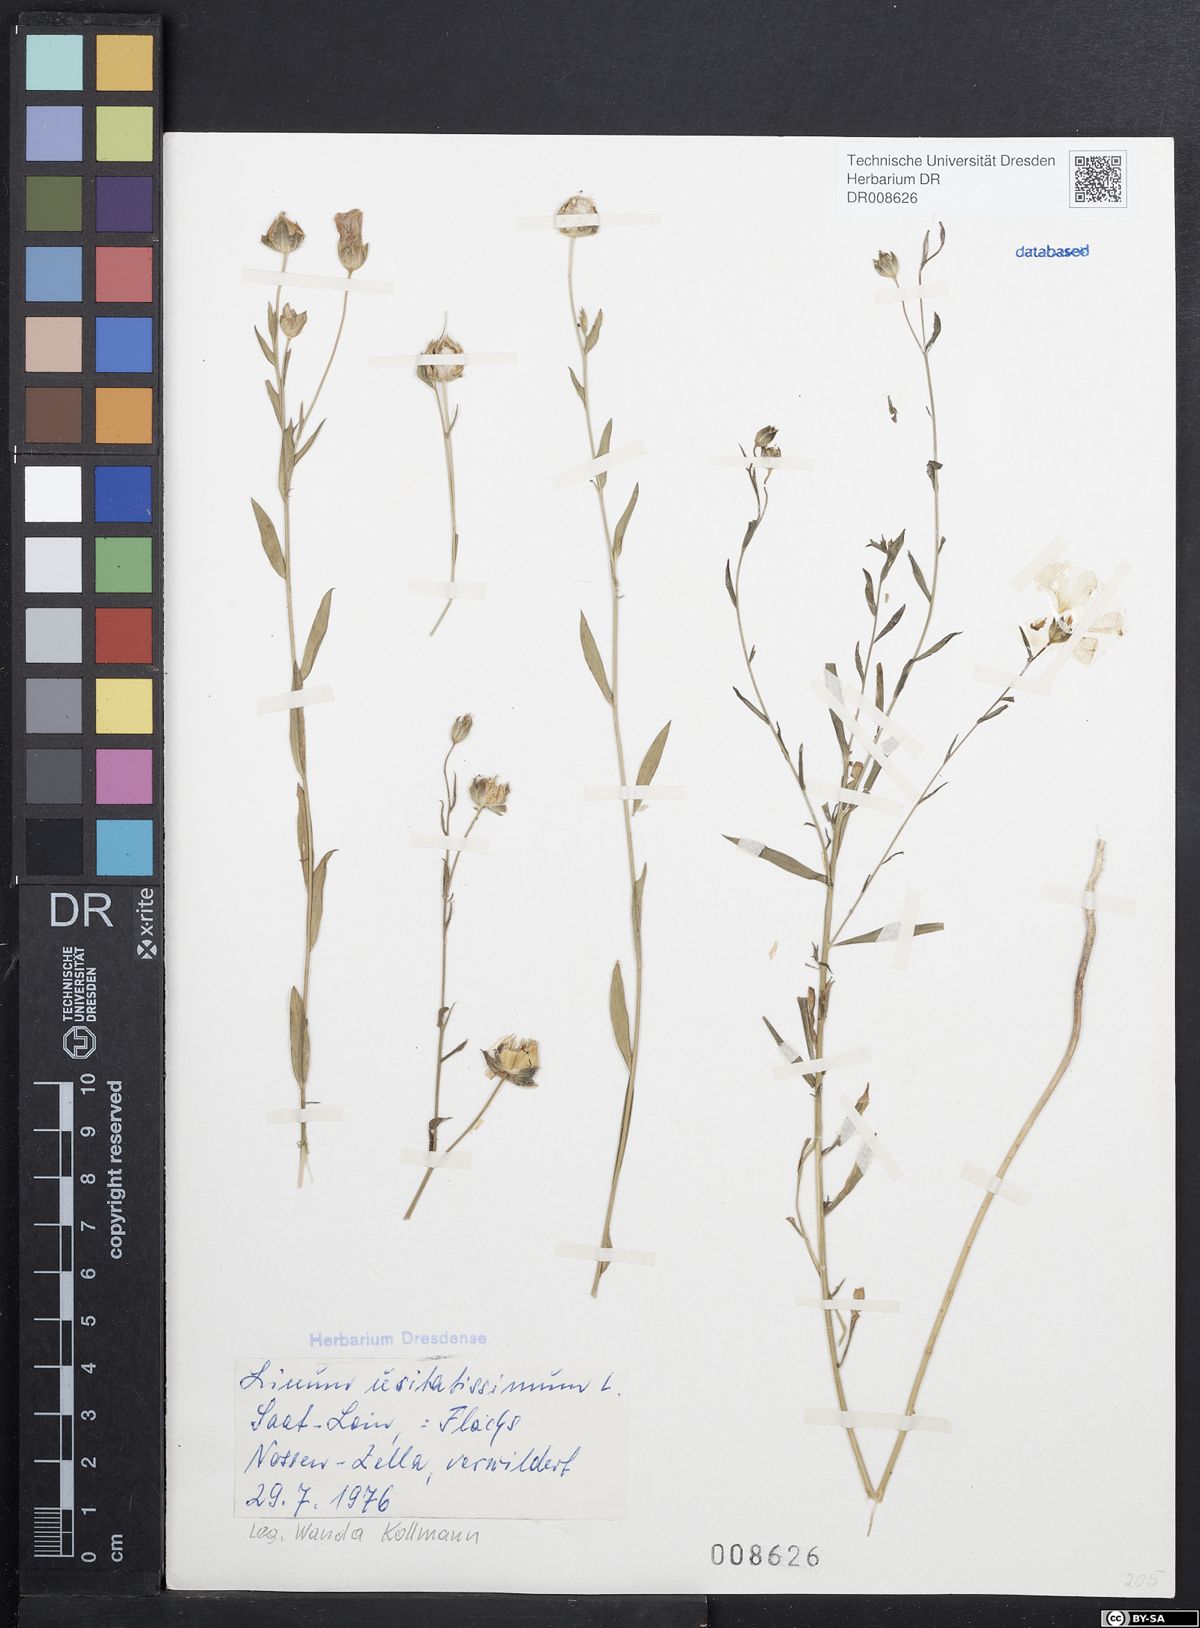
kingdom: Plantae
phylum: Tracheophyta
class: Magnoliopsida
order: Malpighiales
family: Linaceae
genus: Linum
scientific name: Linum usitatissimum
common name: Flax
